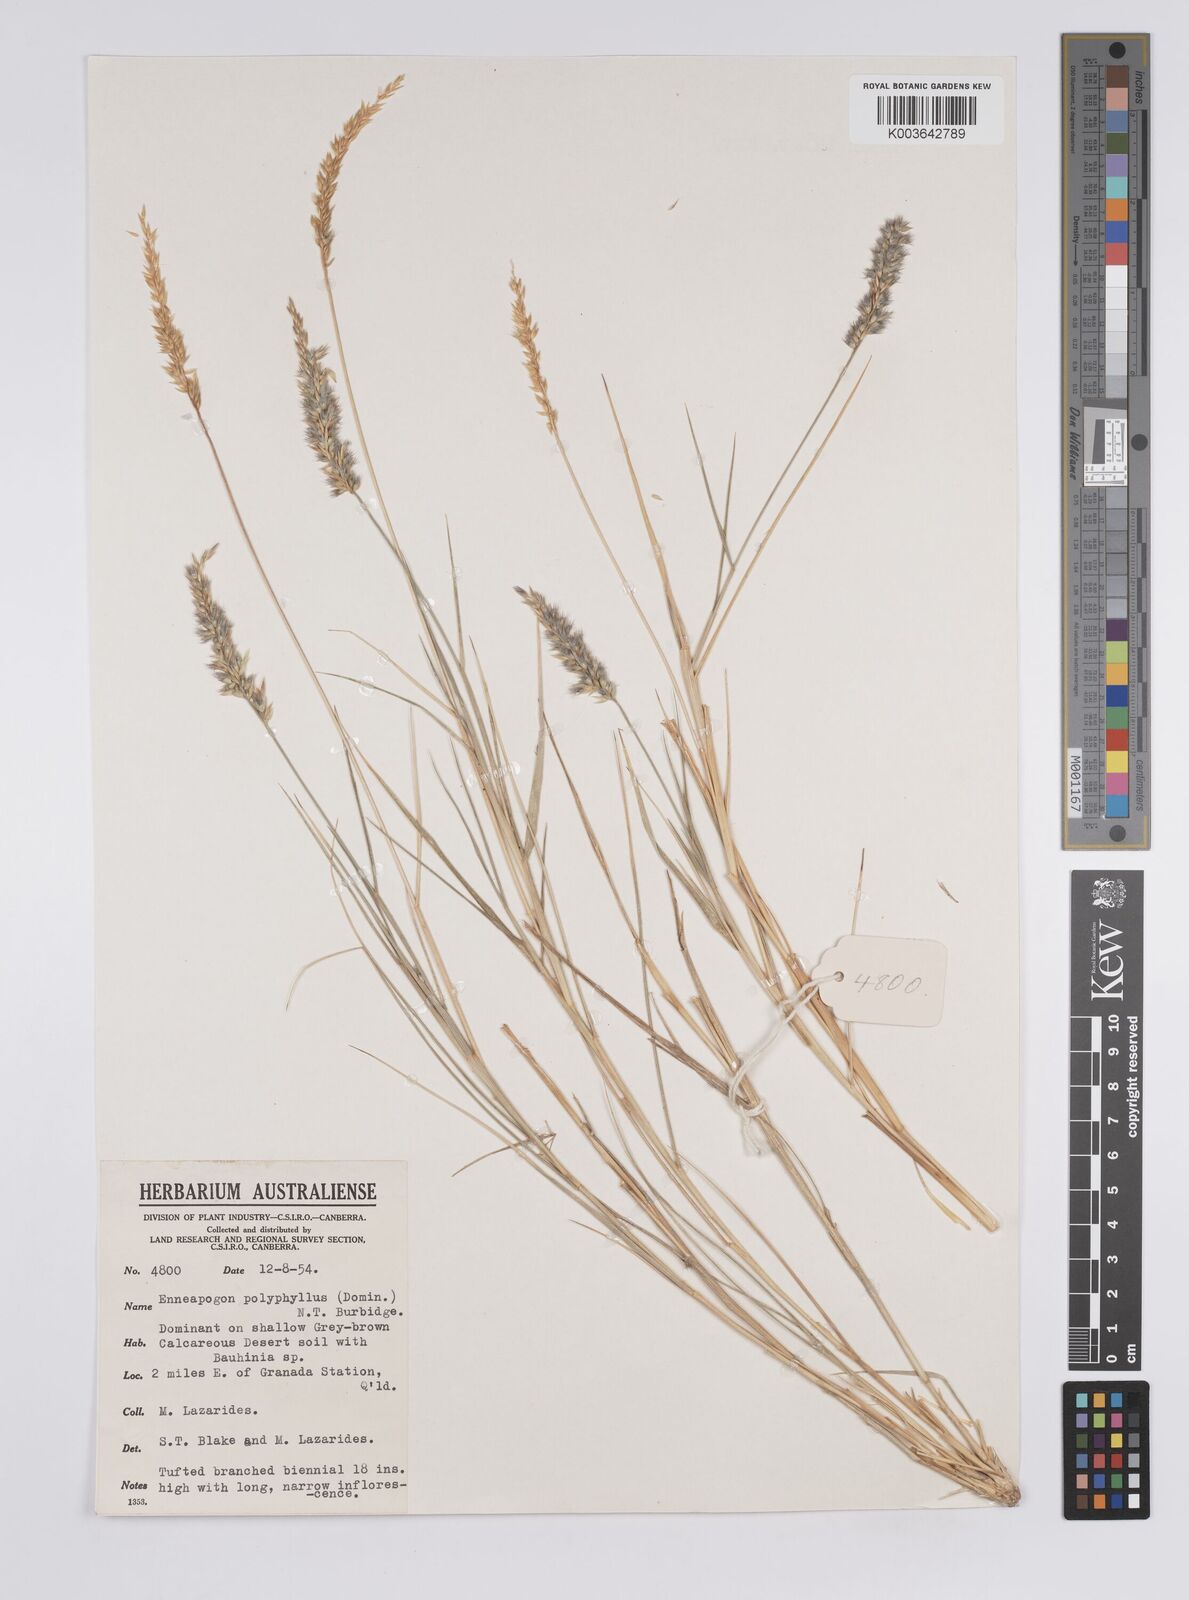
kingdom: Plantae
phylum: Tracheophyta
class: Liliopsida
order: Poales
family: Poaceae
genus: Enneapogon
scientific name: Enneapogon polyphyllus
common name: Leafy nineawn
